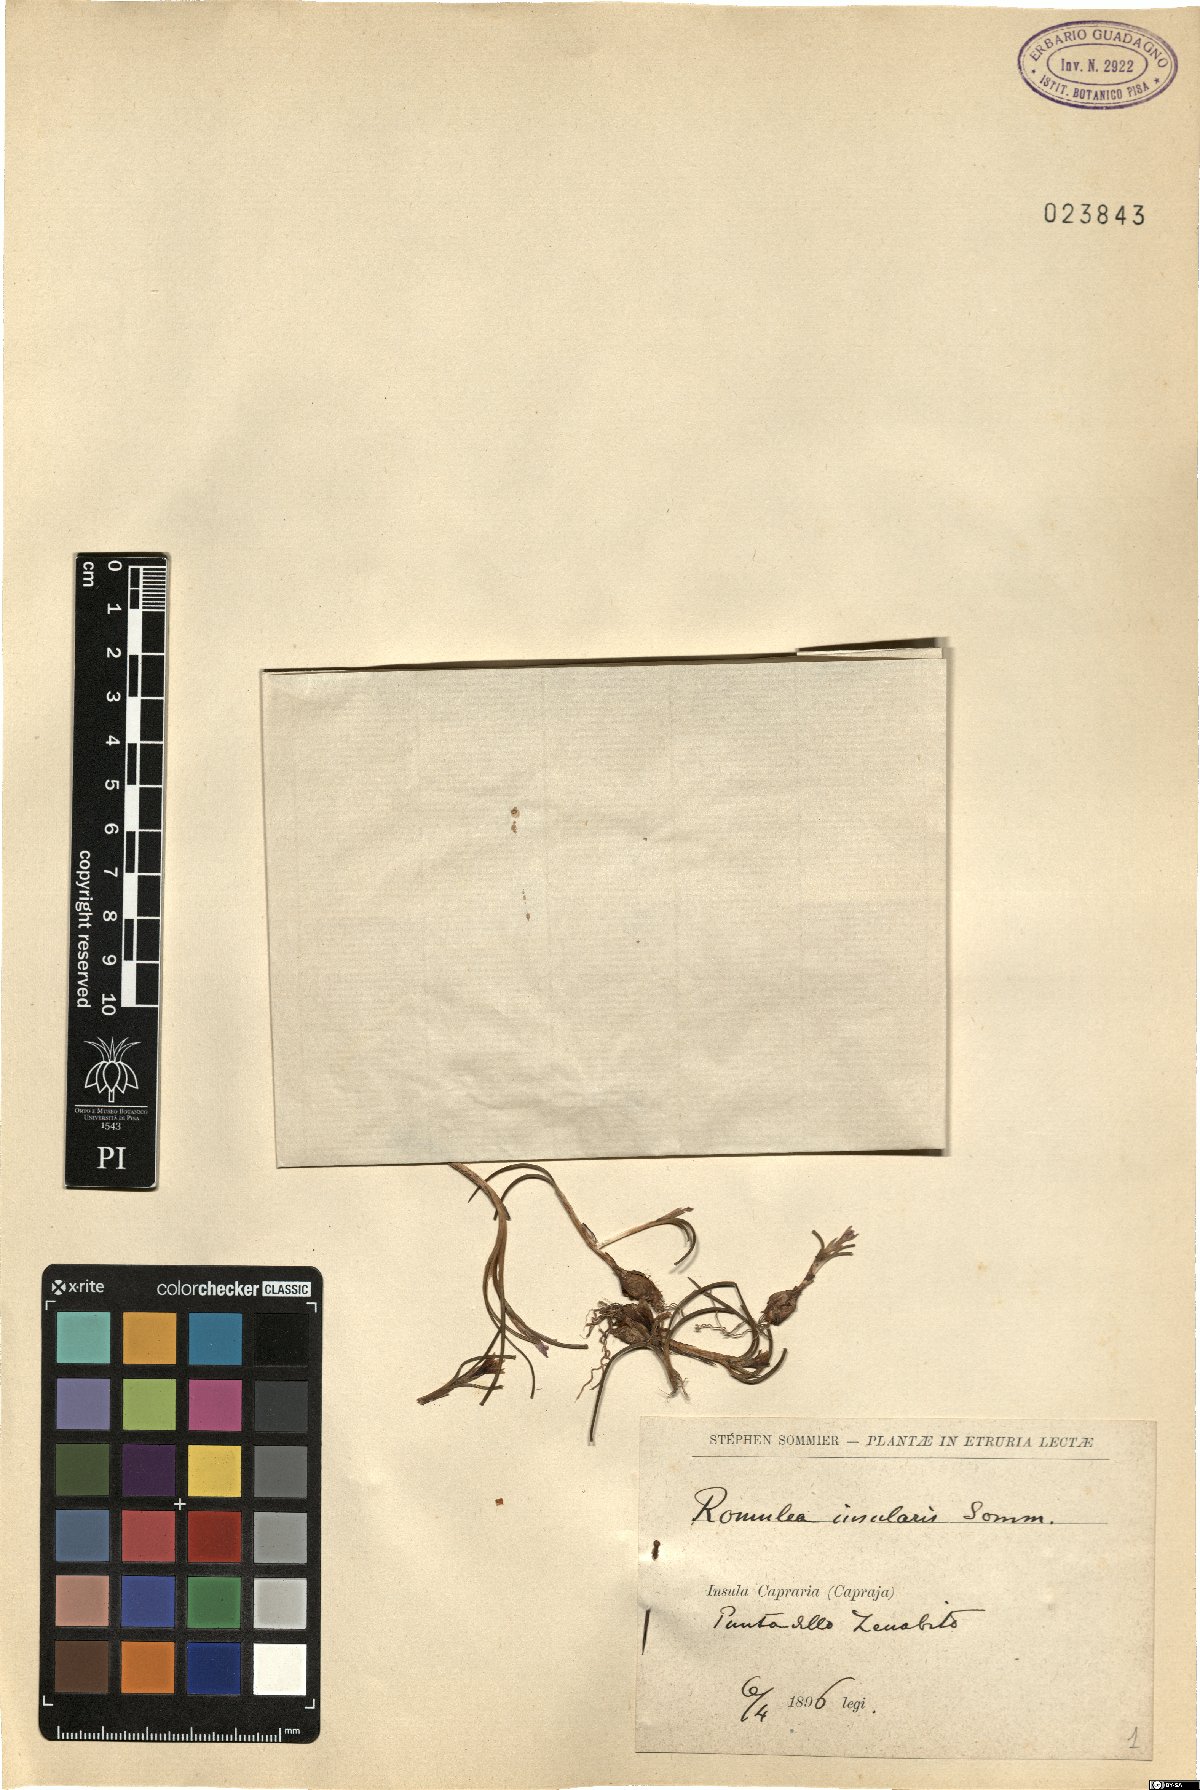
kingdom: Plantae
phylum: Tracheophyta
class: Liliopsida
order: Asparagales
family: Iridaceae
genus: Romulea
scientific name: Romulea insularis
